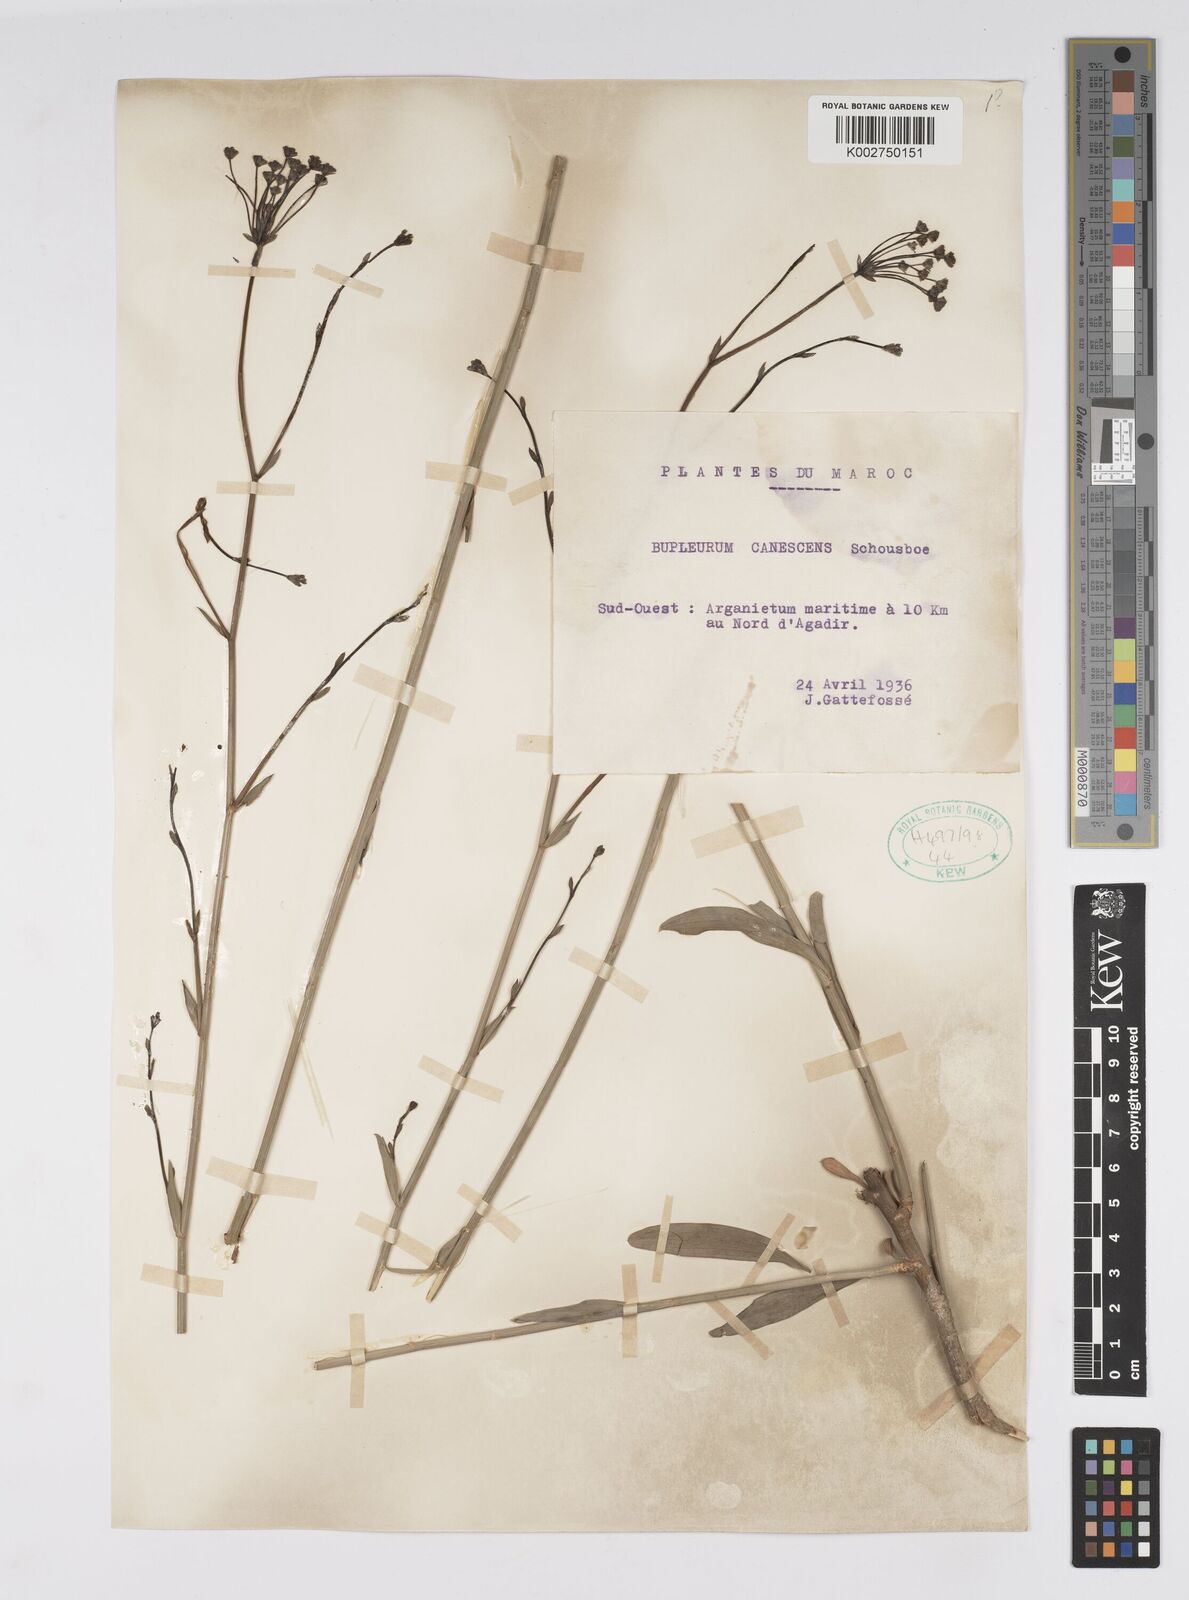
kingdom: Plantae
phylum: Tracheophyta
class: Magnoliopsida
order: Apiales
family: Apiaceae
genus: Bupleurum
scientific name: Bupleurum canescens
